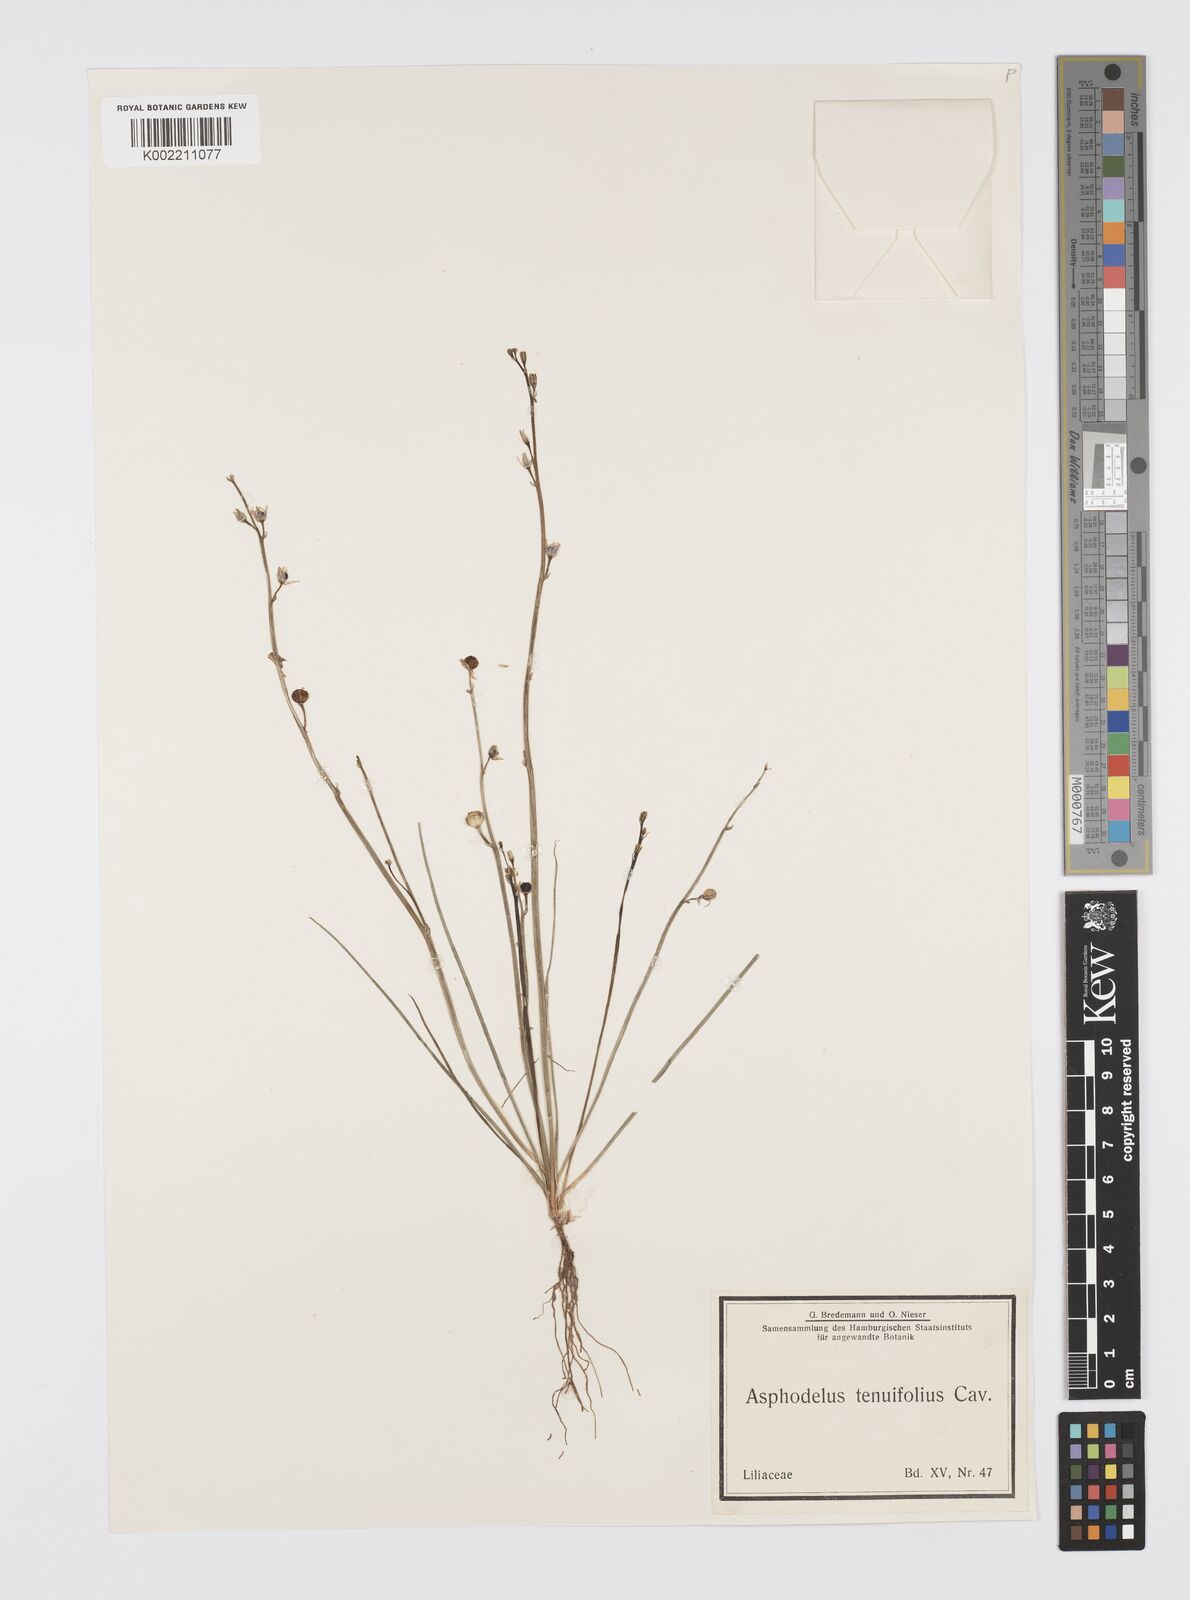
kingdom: Plantae
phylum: Tracheophyta
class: Liliopsida
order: Asparagales
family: Asphodelaceae
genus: Asphodelus
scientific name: Asphodelus tenuifolius
